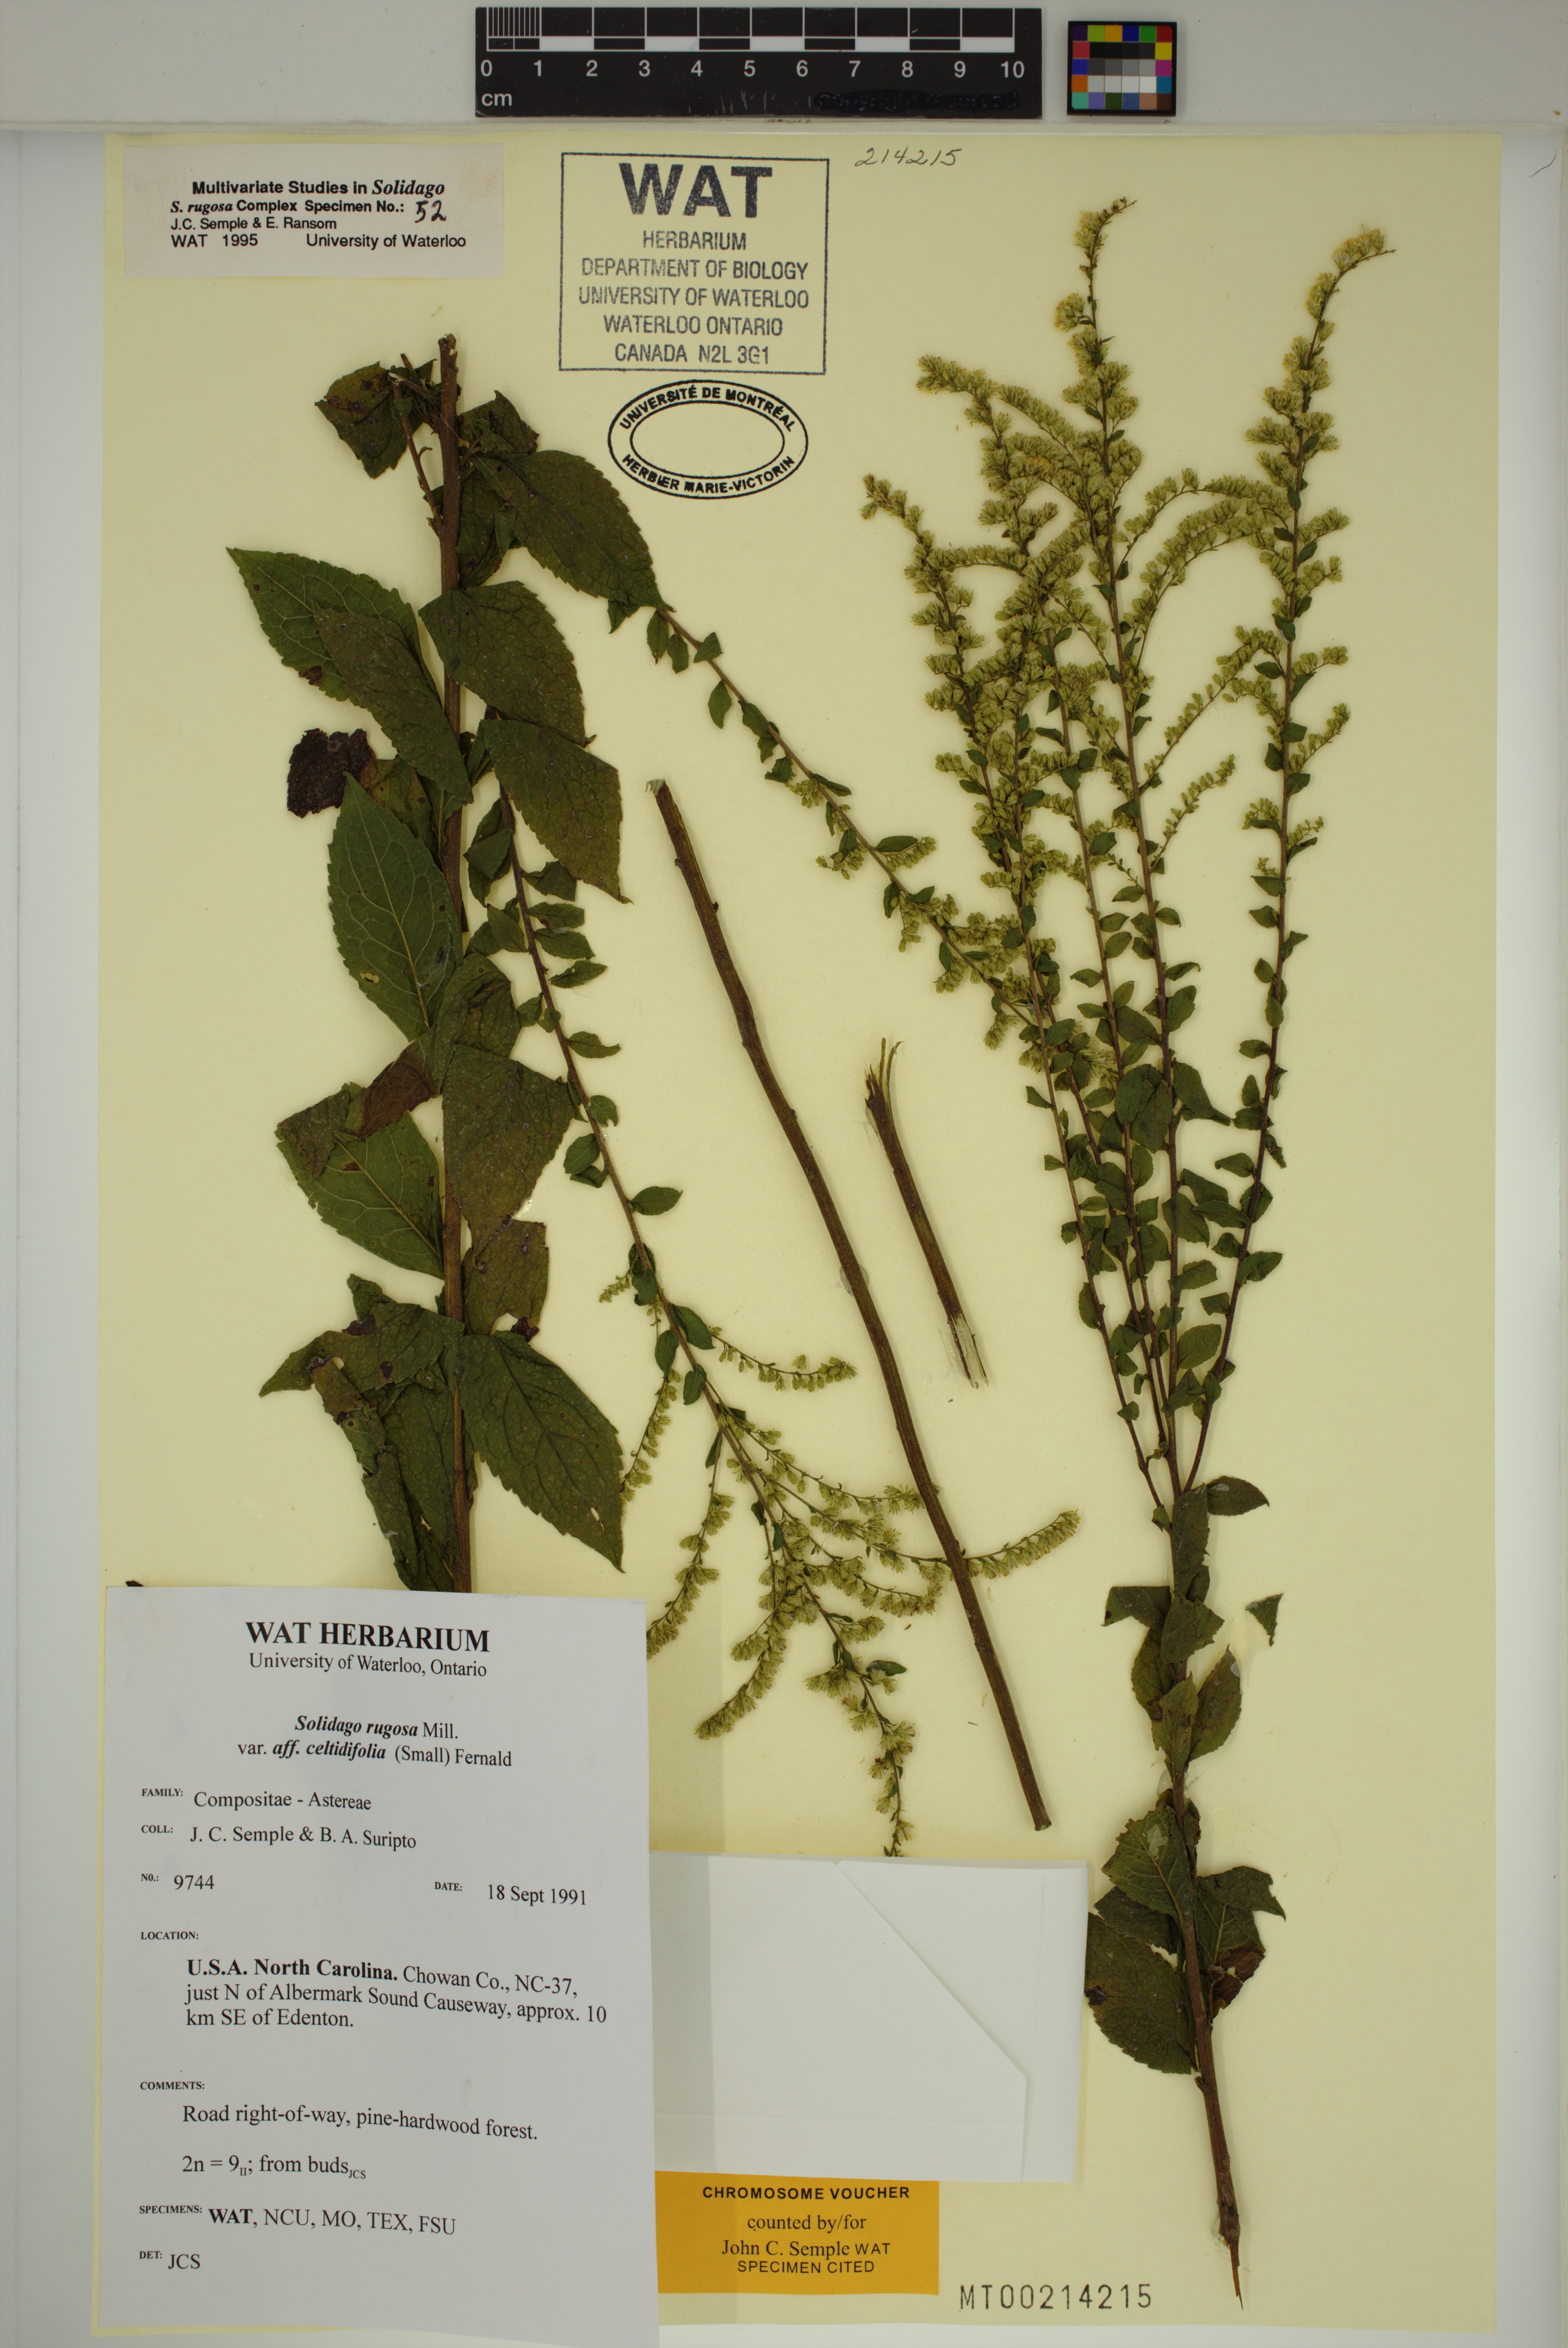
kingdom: Plantae
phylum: Tracheophyta
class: Magnoliopsida
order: Asterales
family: Asteraceae
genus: Solidago
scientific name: Solidago rugosa
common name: Rough-stemmed goldenrod
